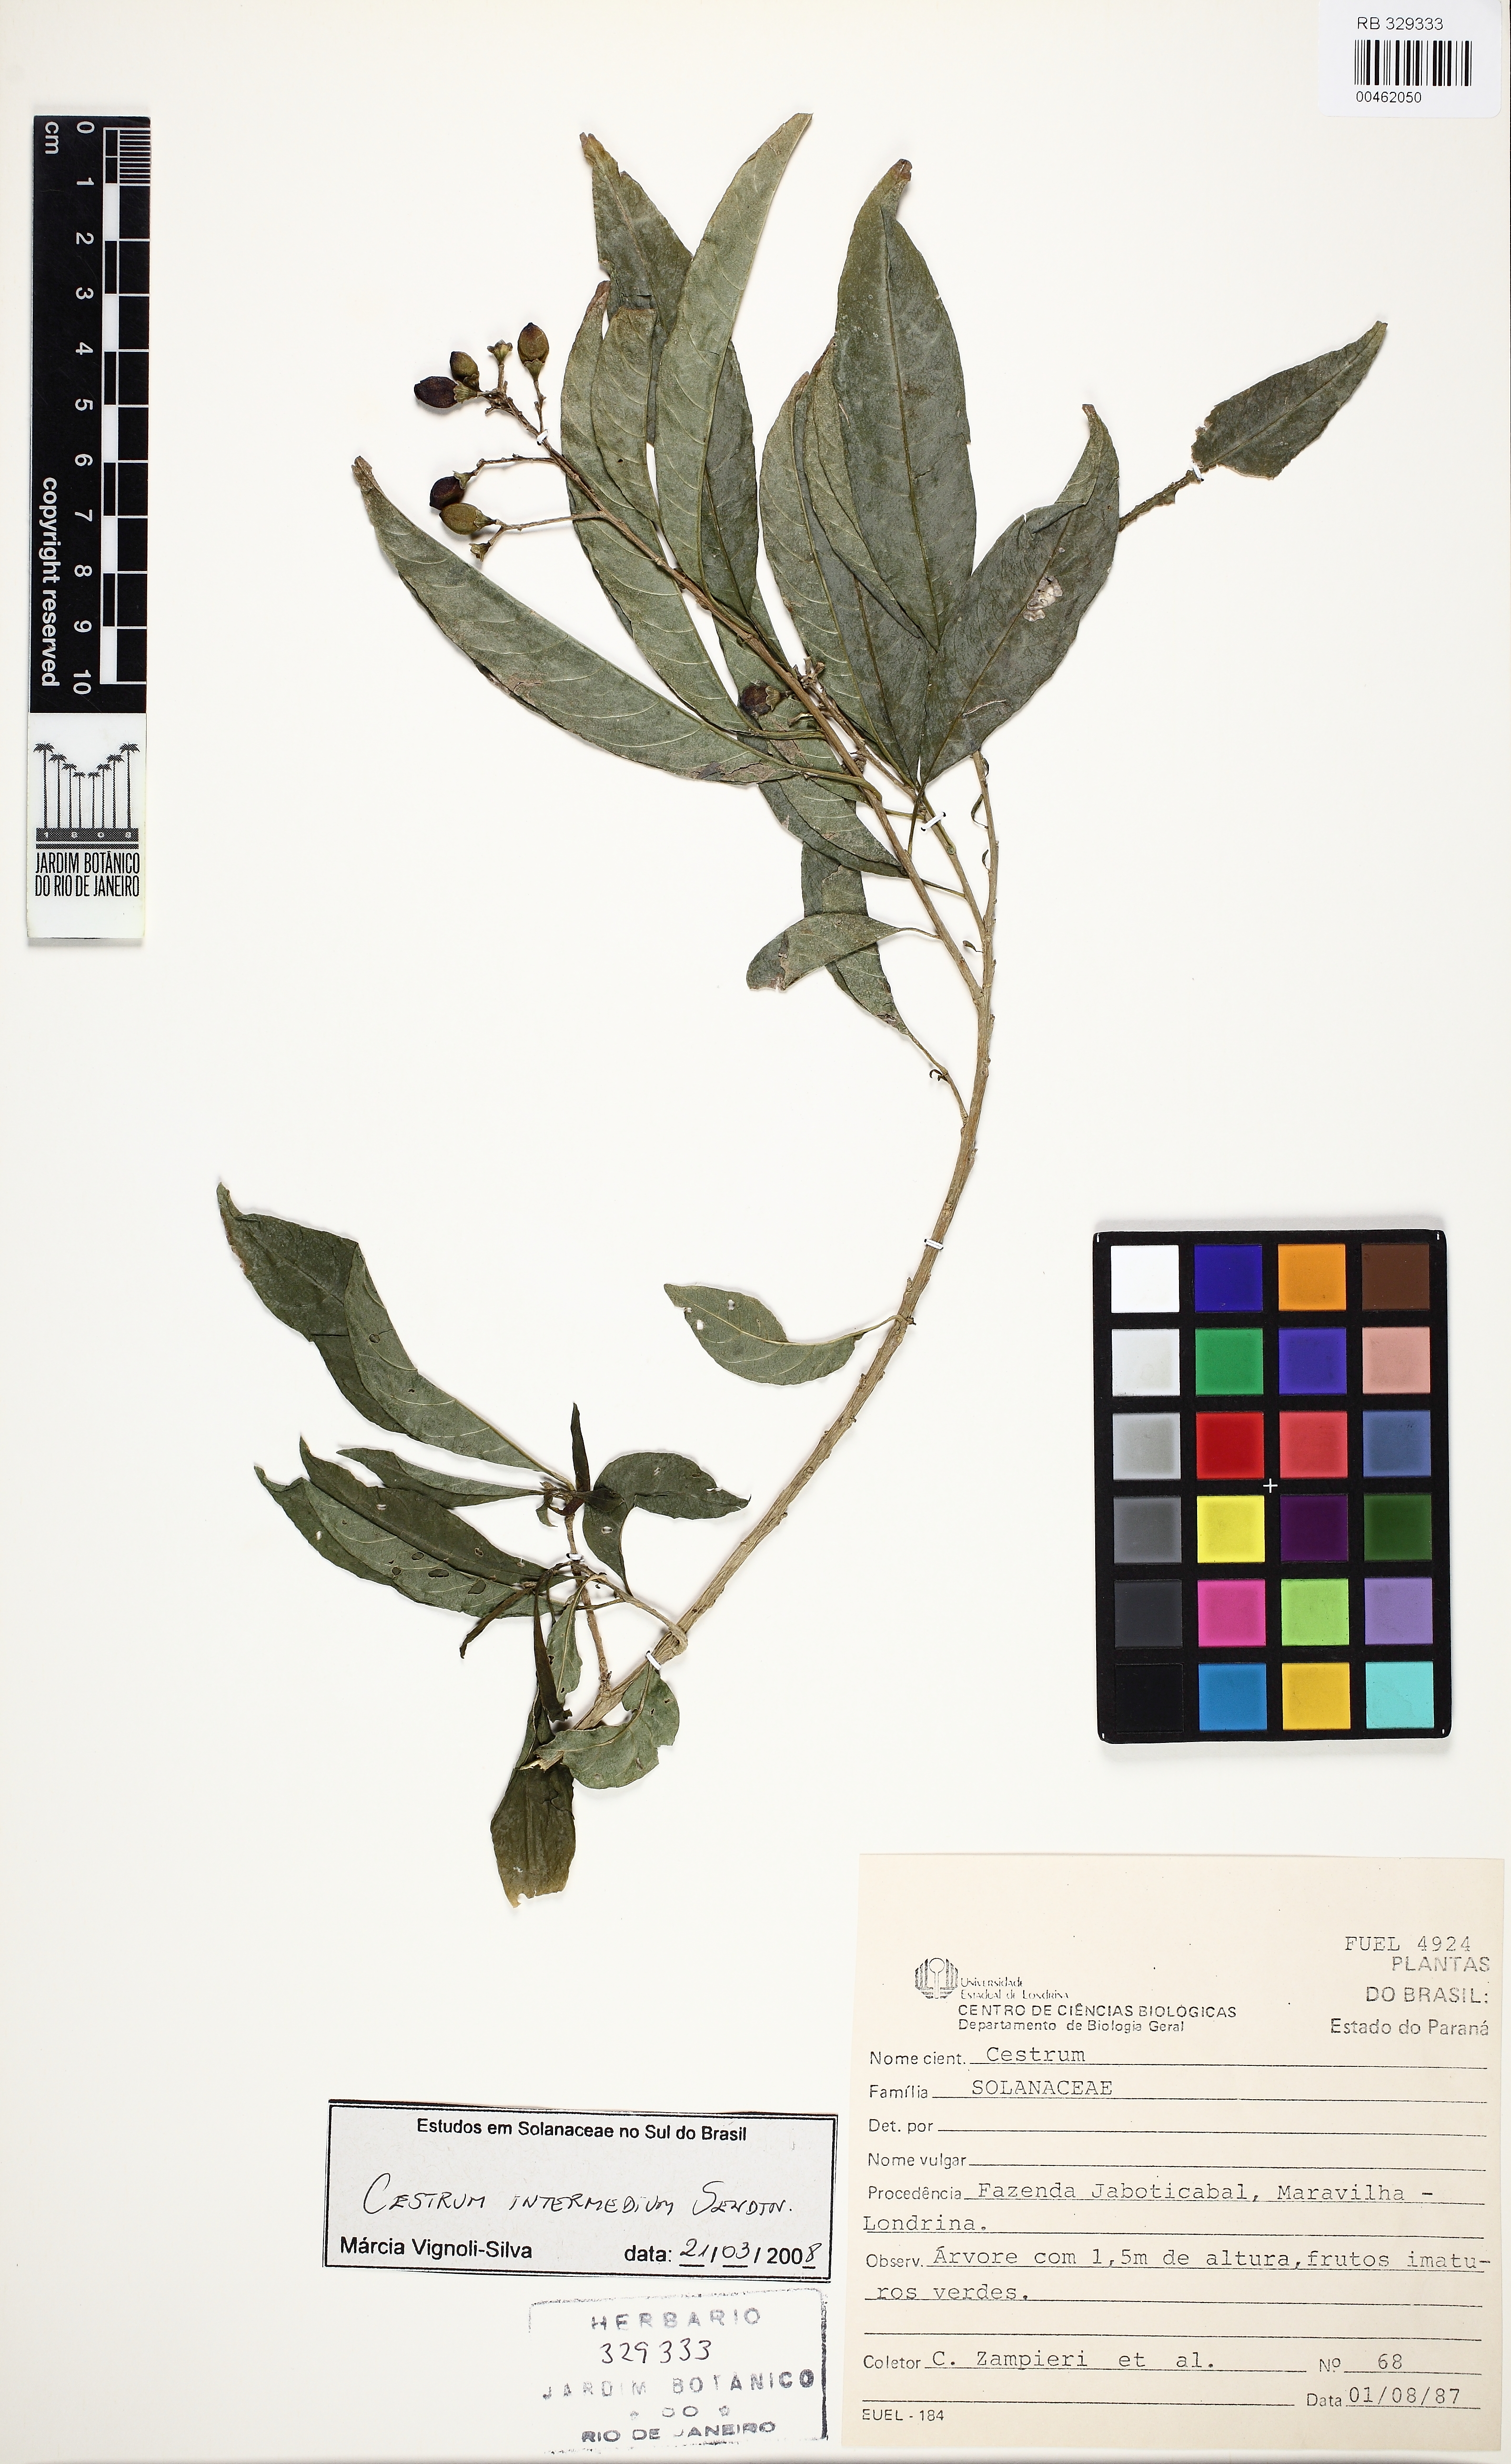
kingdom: Plantae
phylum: Tracheophyta
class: Magnoliopsida
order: Solanales
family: Solanaceae
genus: Cestrum
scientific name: Cestrum intermedium
